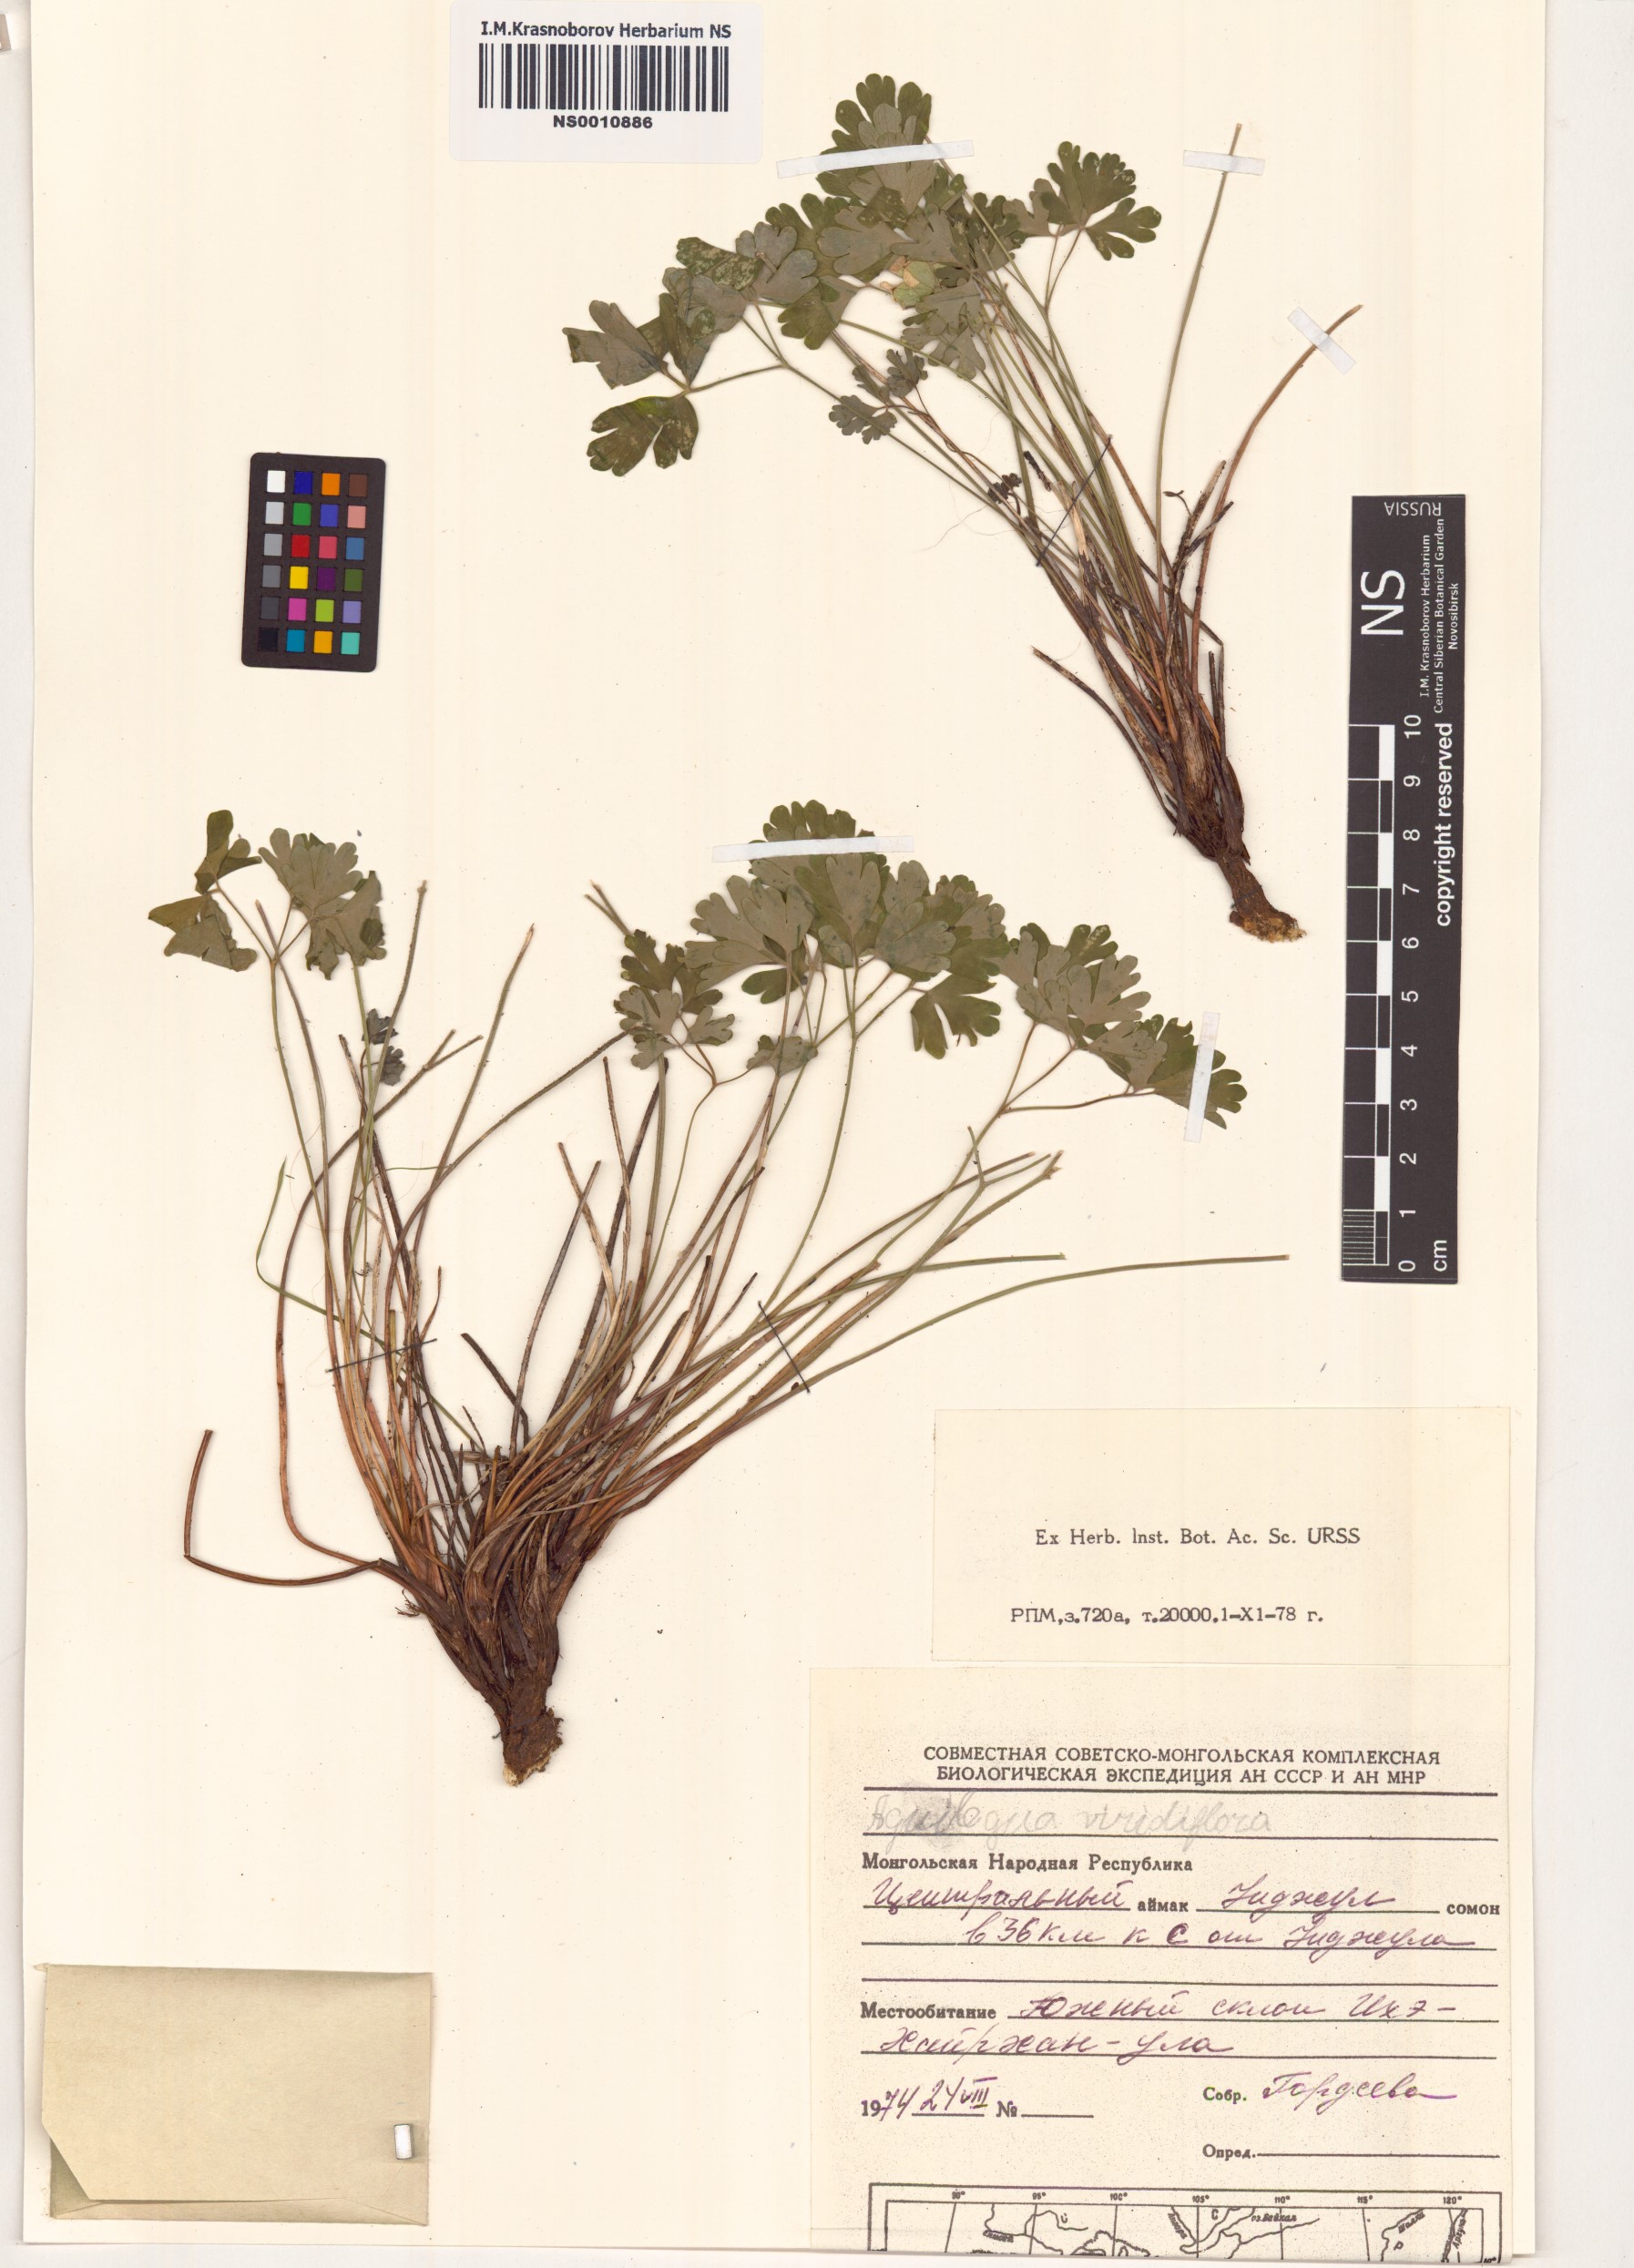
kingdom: Plantae
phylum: Tracheophyta
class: Magnoliopsida
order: Ranunculales
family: Ranunculaceae
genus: Aquilegia
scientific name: Aquilegia viridiflora
